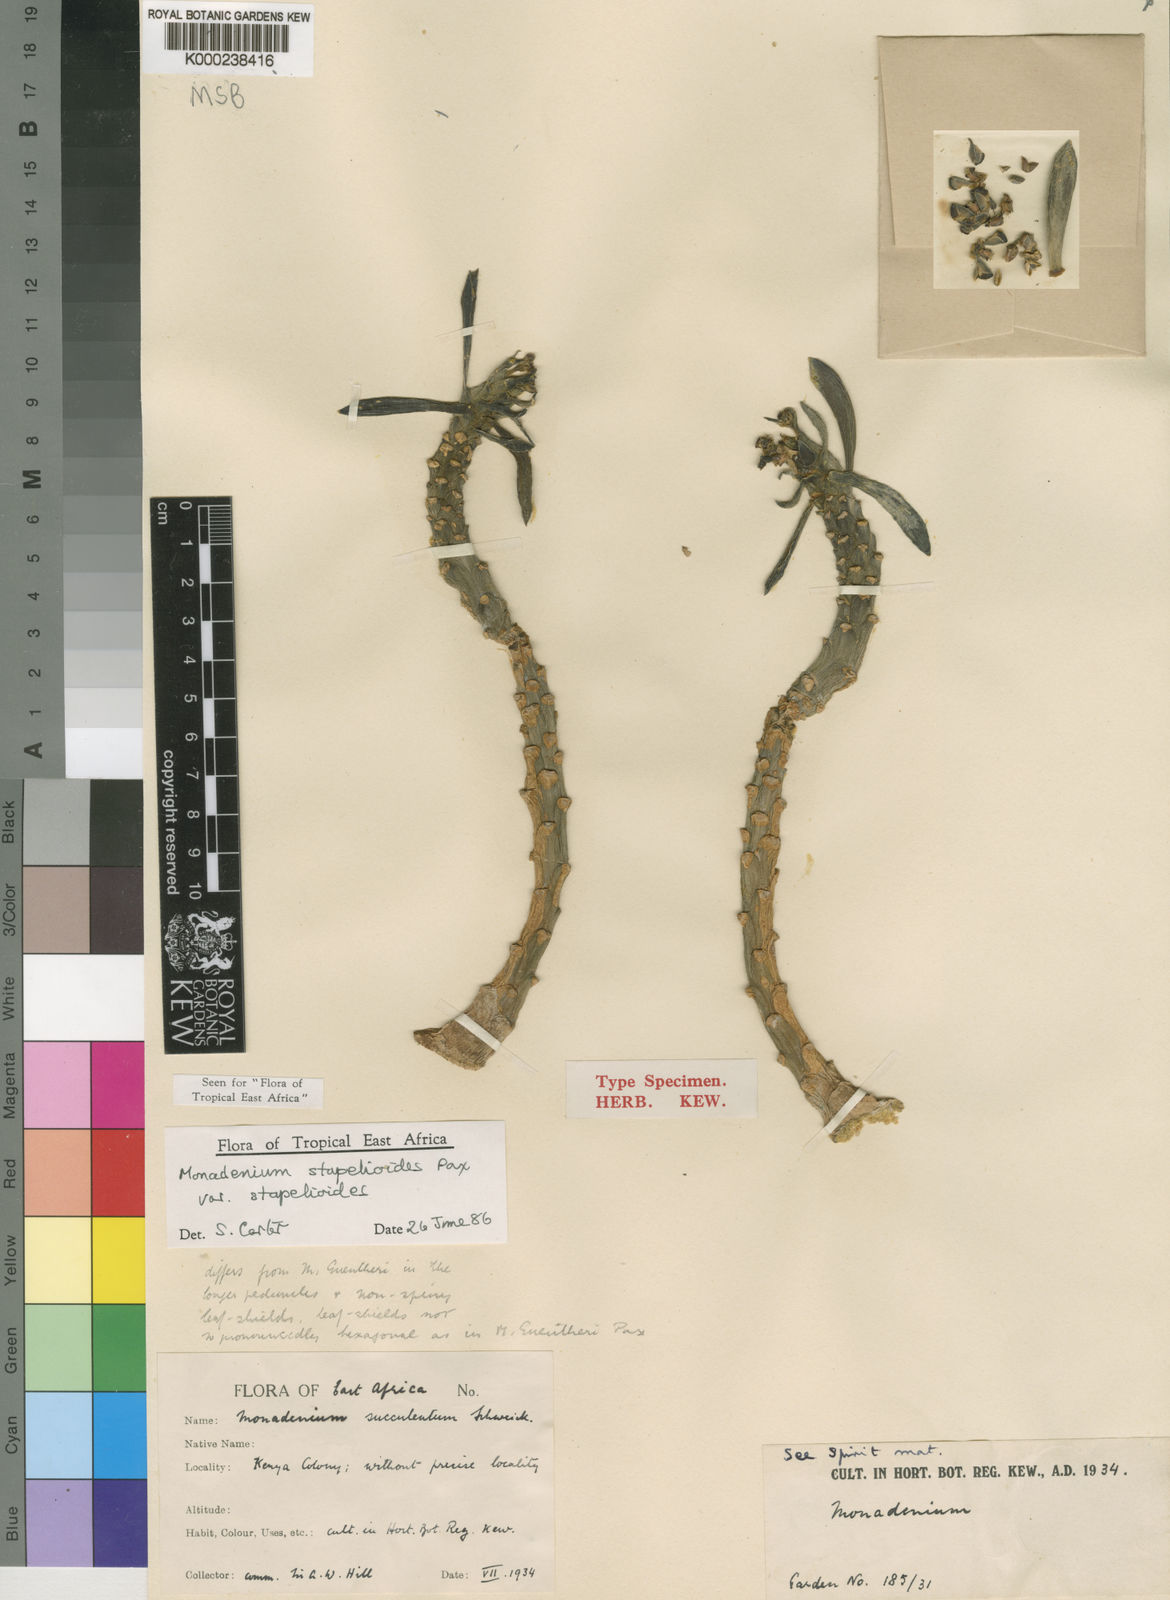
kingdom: Plantae
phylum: Tracheophyta
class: Magnoliopsida
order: Malpighiales
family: Euphorbiaceae
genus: Euphorbia
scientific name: Euphorbia succulenta
